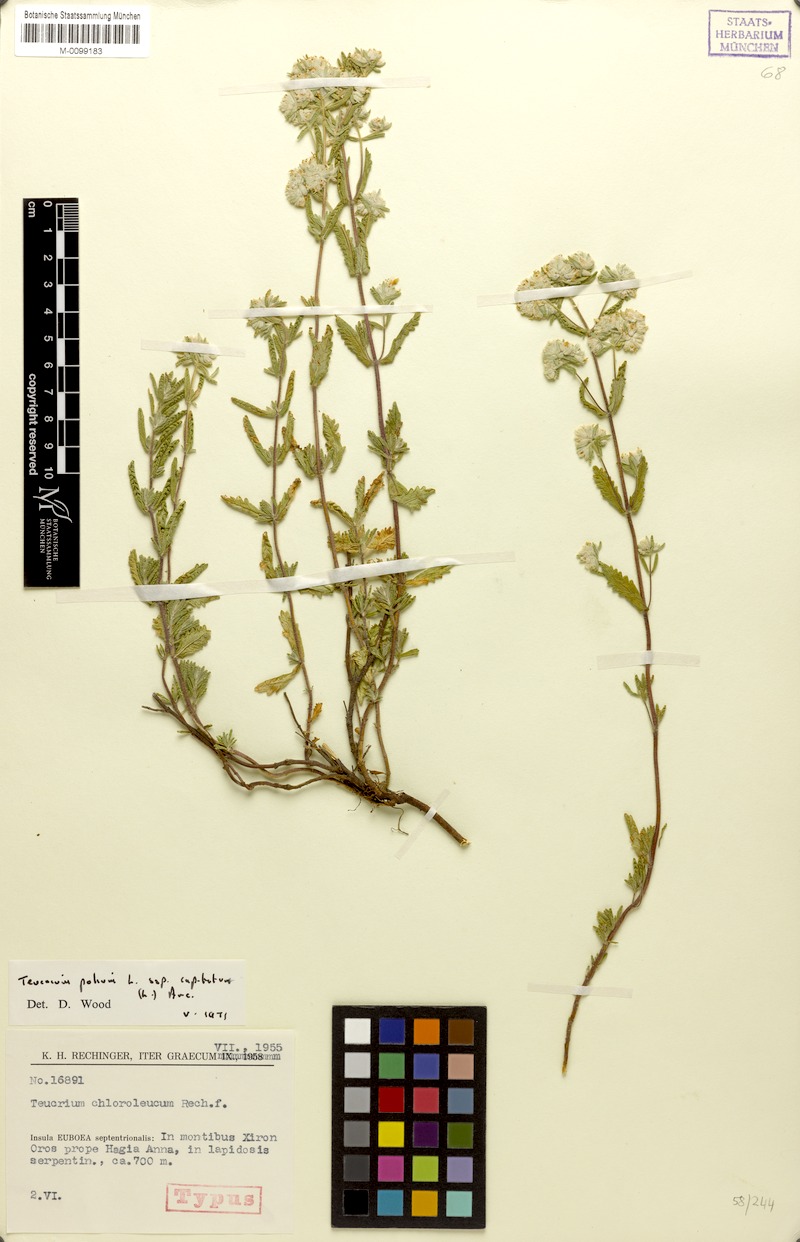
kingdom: Plantae
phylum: Tracheophyta
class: Magnoliopsida
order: Lamiales
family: Lamiaceae
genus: Teucrium
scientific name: Teucrium capitatum
